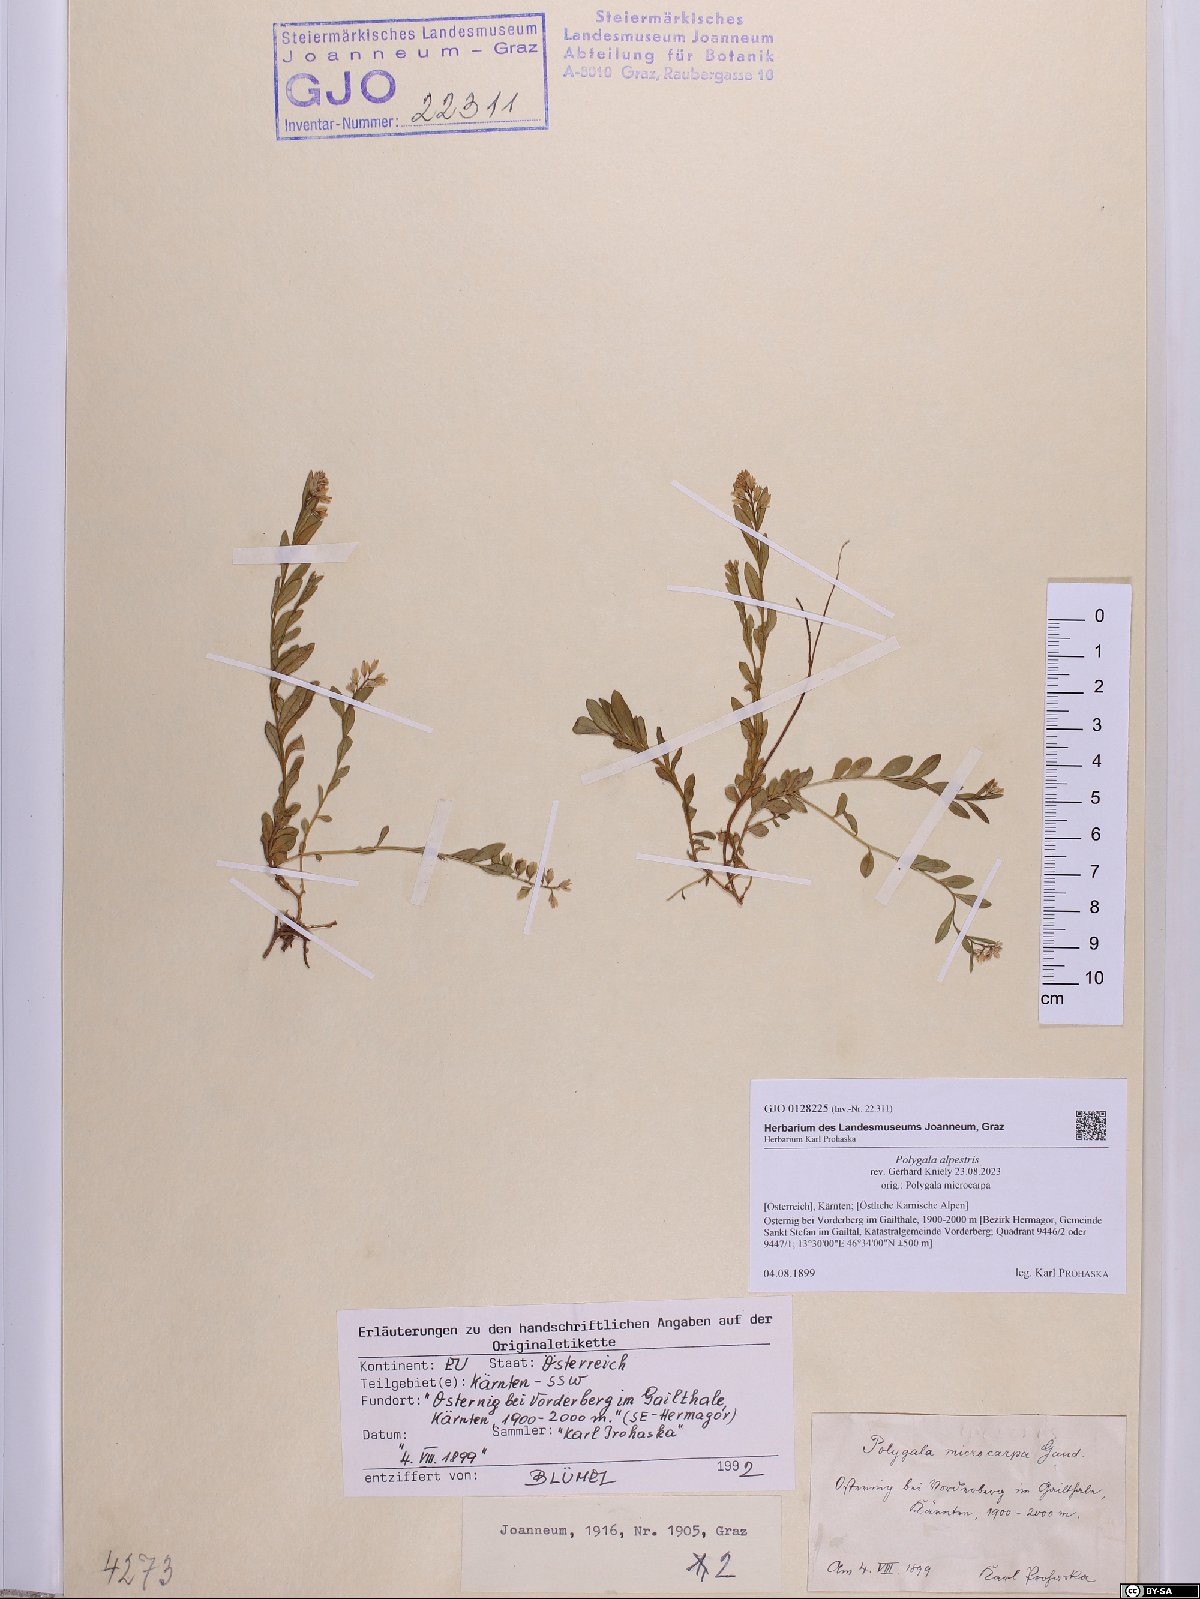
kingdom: Plantae
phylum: Tracheophyta
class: Magnoliopsida
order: Fabales
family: Polygalaceae
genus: Polygala
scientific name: Polygala alpestris
